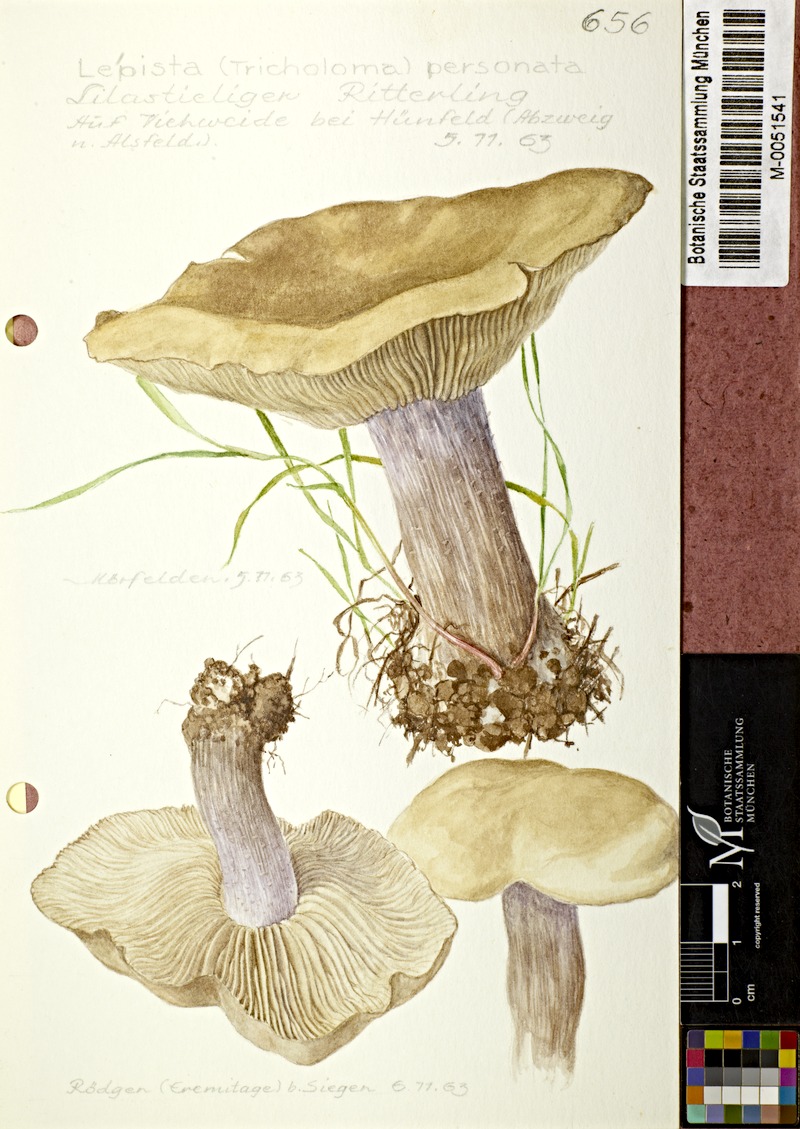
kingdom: Fungi
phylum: Basidiomycota
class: Agaricomycetes
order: Agaricales
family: Tricholomataceae
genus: Lepista
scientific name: Lepista personata
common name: Field blewit
